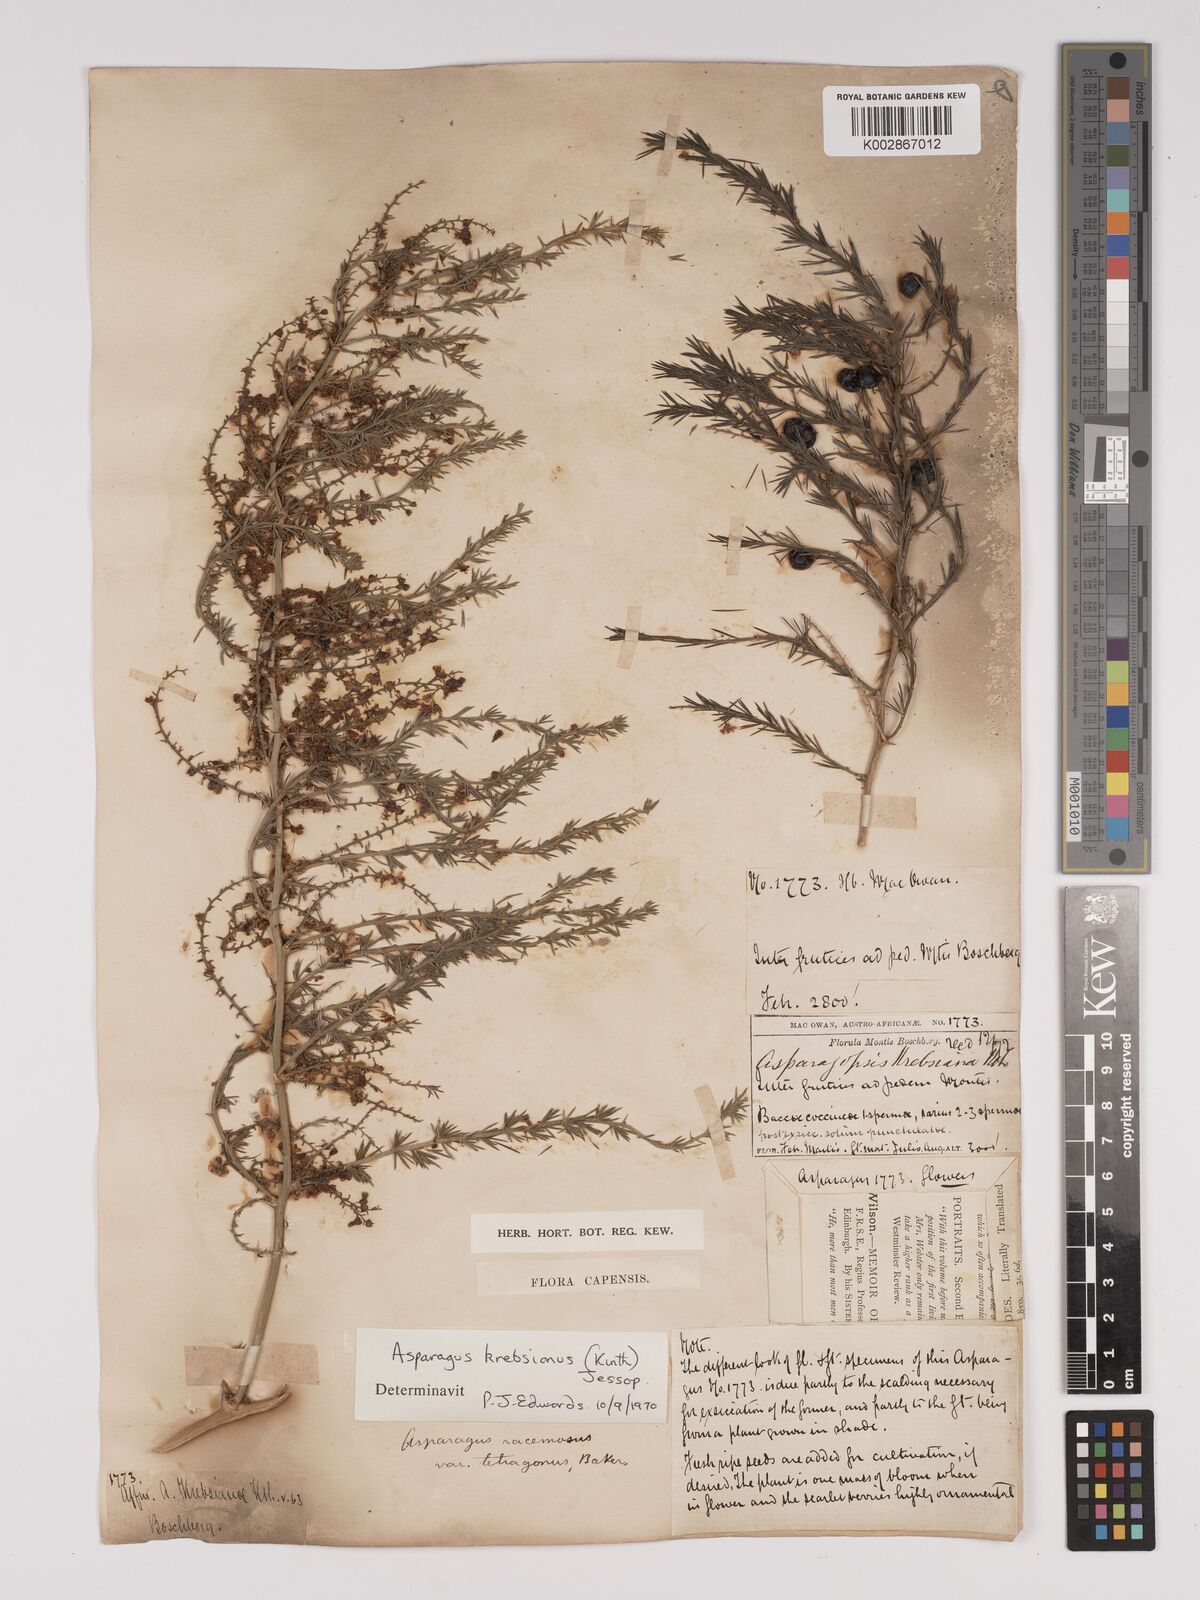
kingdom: Plantae
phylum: Tracheophyta
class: Liliopsida
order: Asparagales
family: Asparagaceae
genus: Asparagus
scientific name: Asparagus krebsianus
